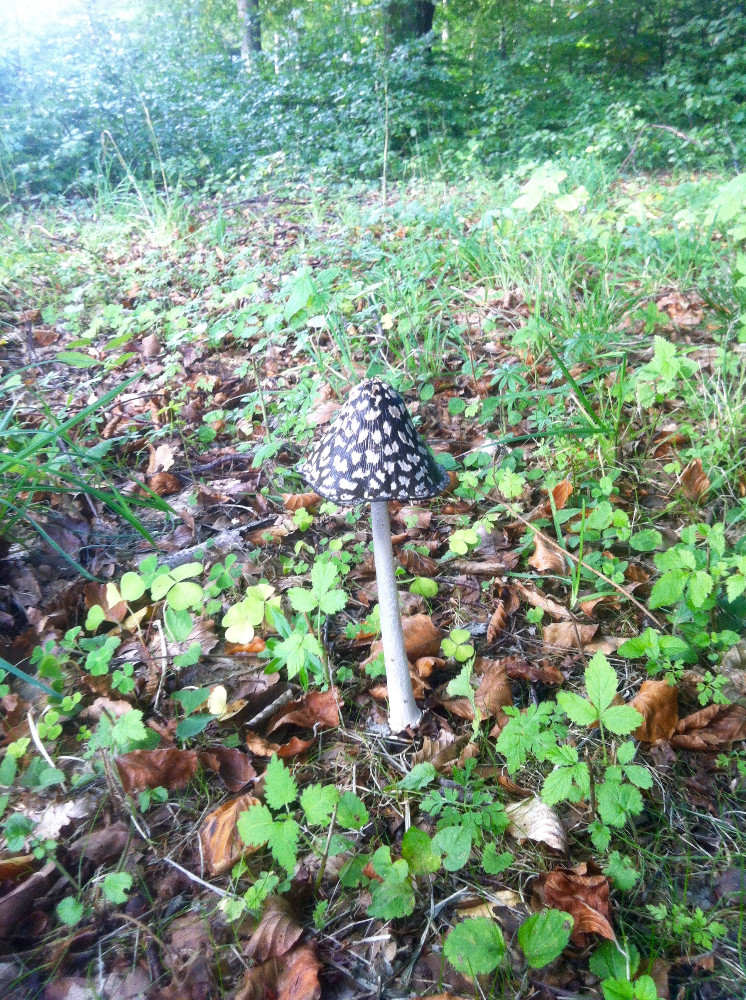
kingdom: Fungi
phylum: Basidiomycota
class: Agaricomycetes
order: Agaricales
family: Psathyrellaceae
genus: Coprinopsis
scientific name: Coprinopsis picacea
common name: skade-blækhat
